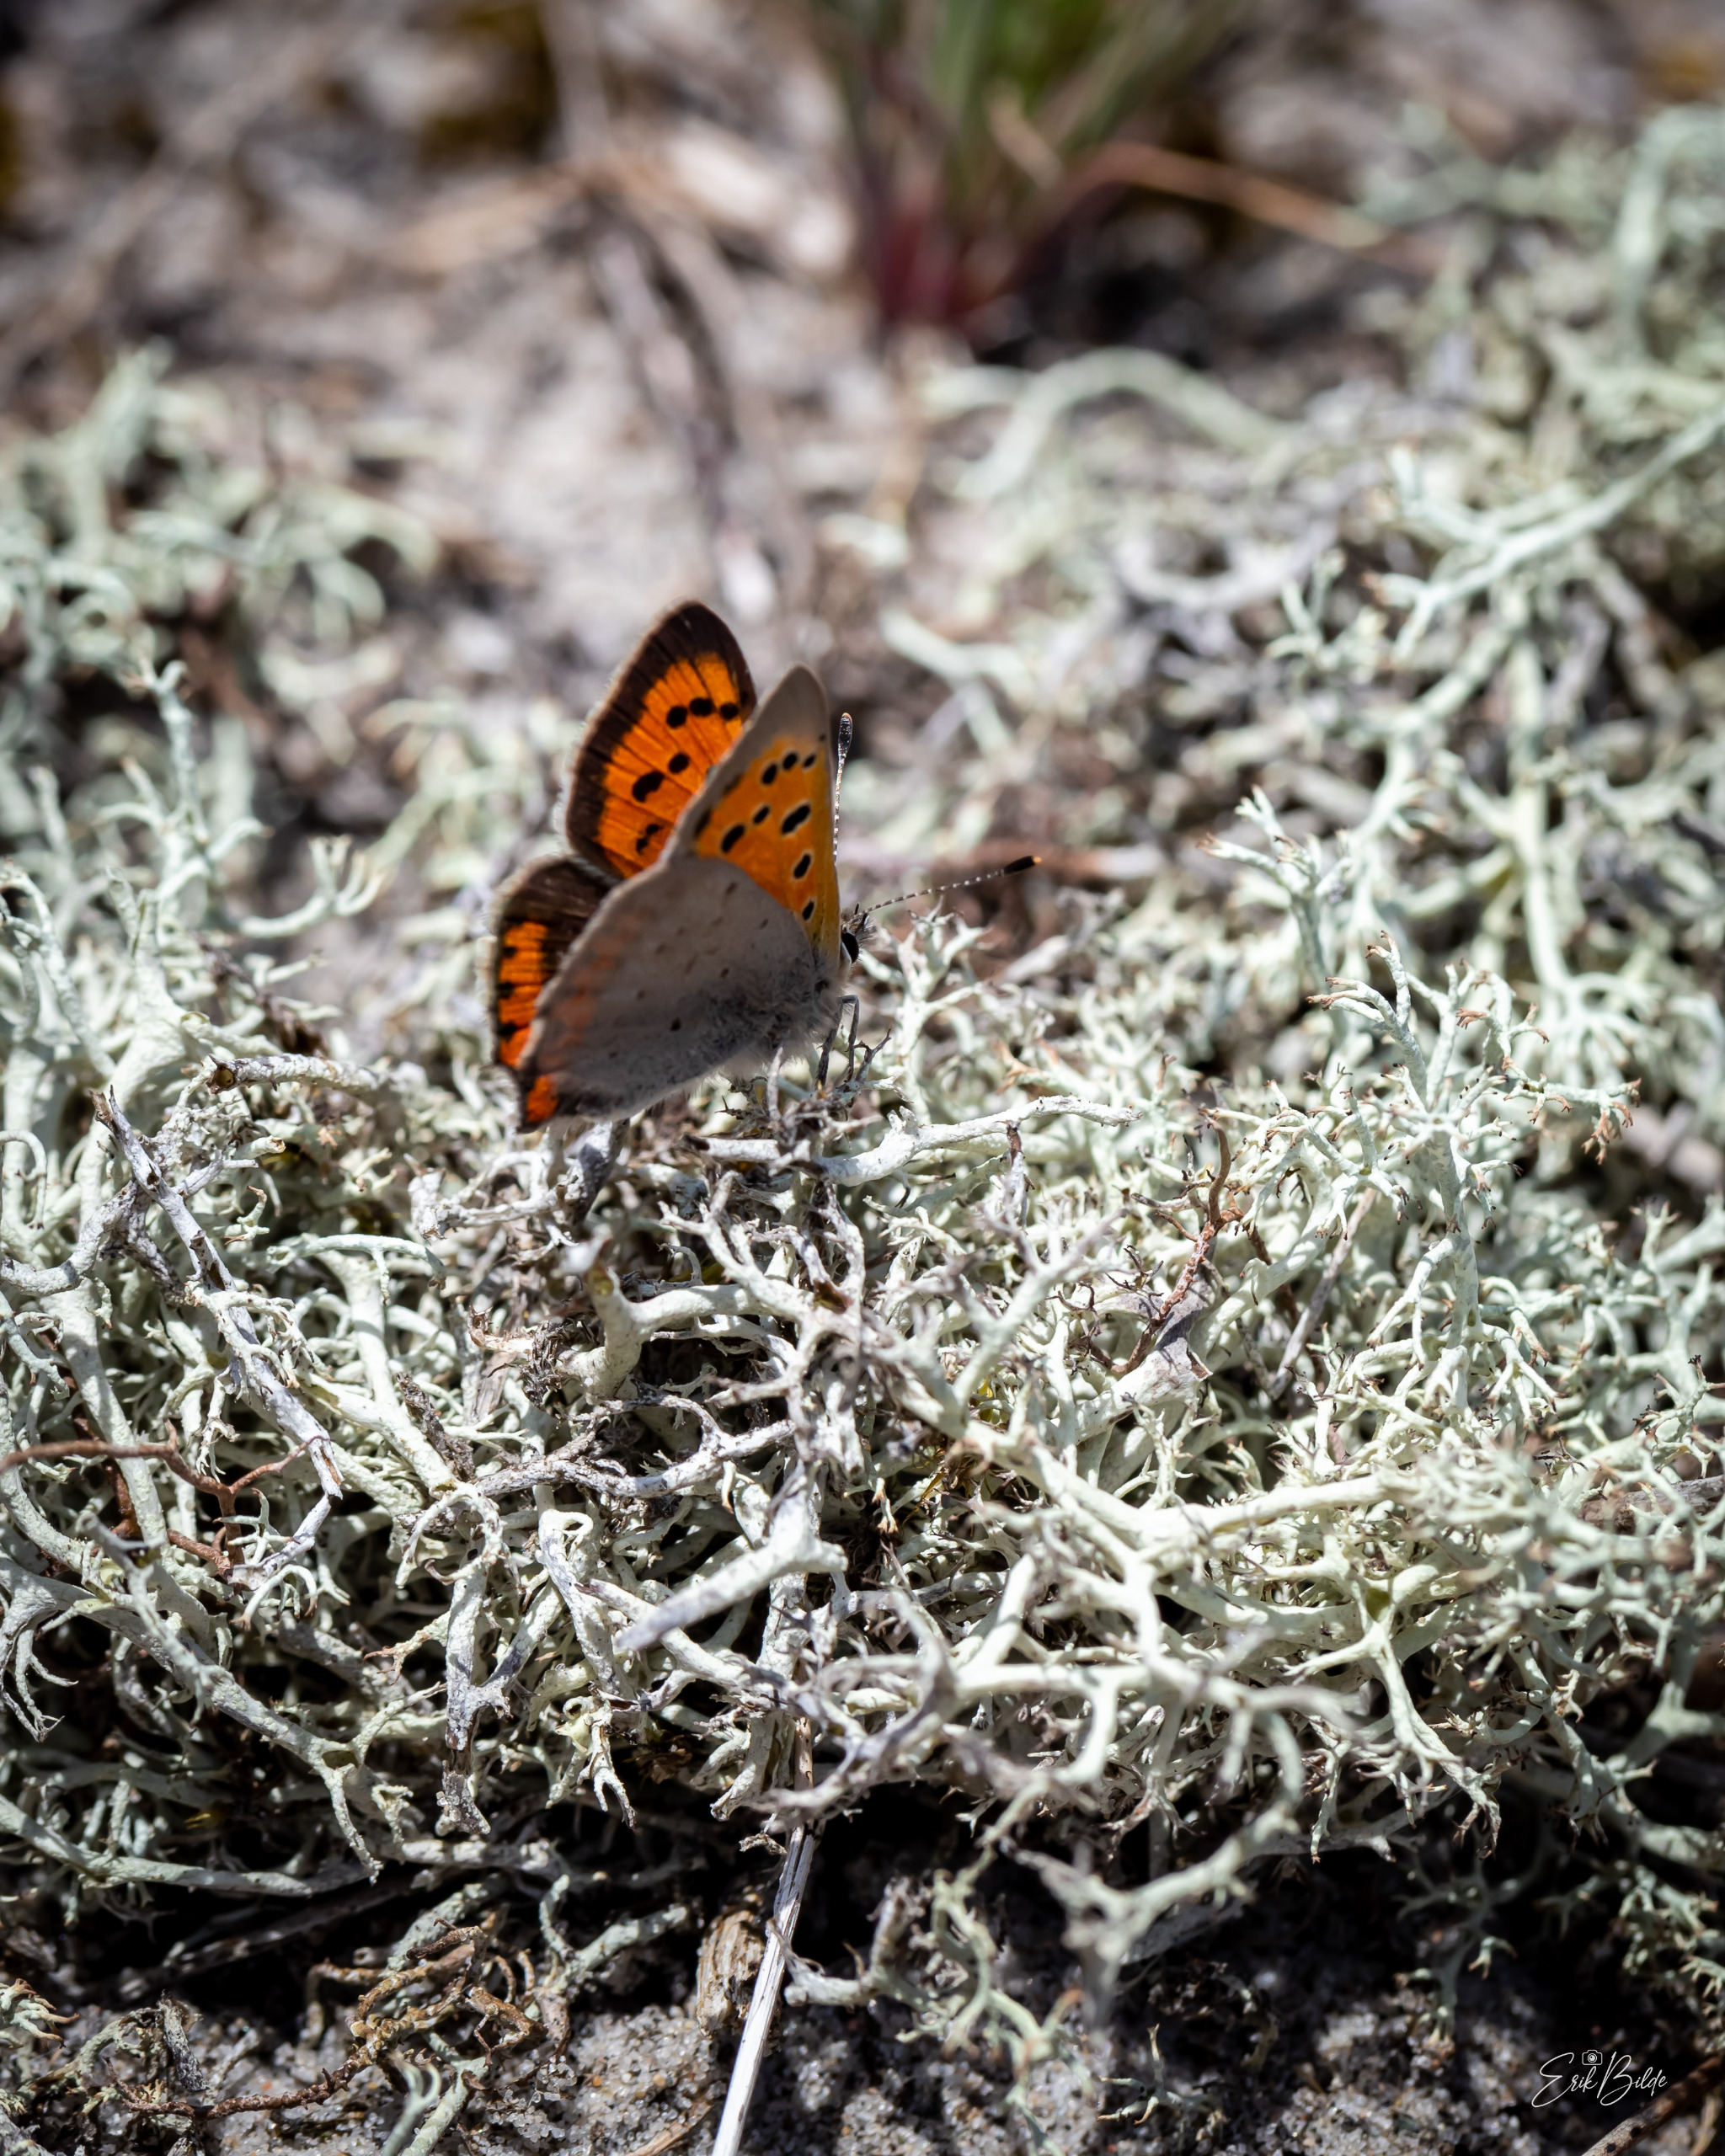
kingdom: Animalia
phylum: Arthropoda
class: Insecta
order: Lepidoptera
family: Lycaenidae
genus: Lycaena
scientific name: Lycaena phlaeas
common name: Lille ildfugl
